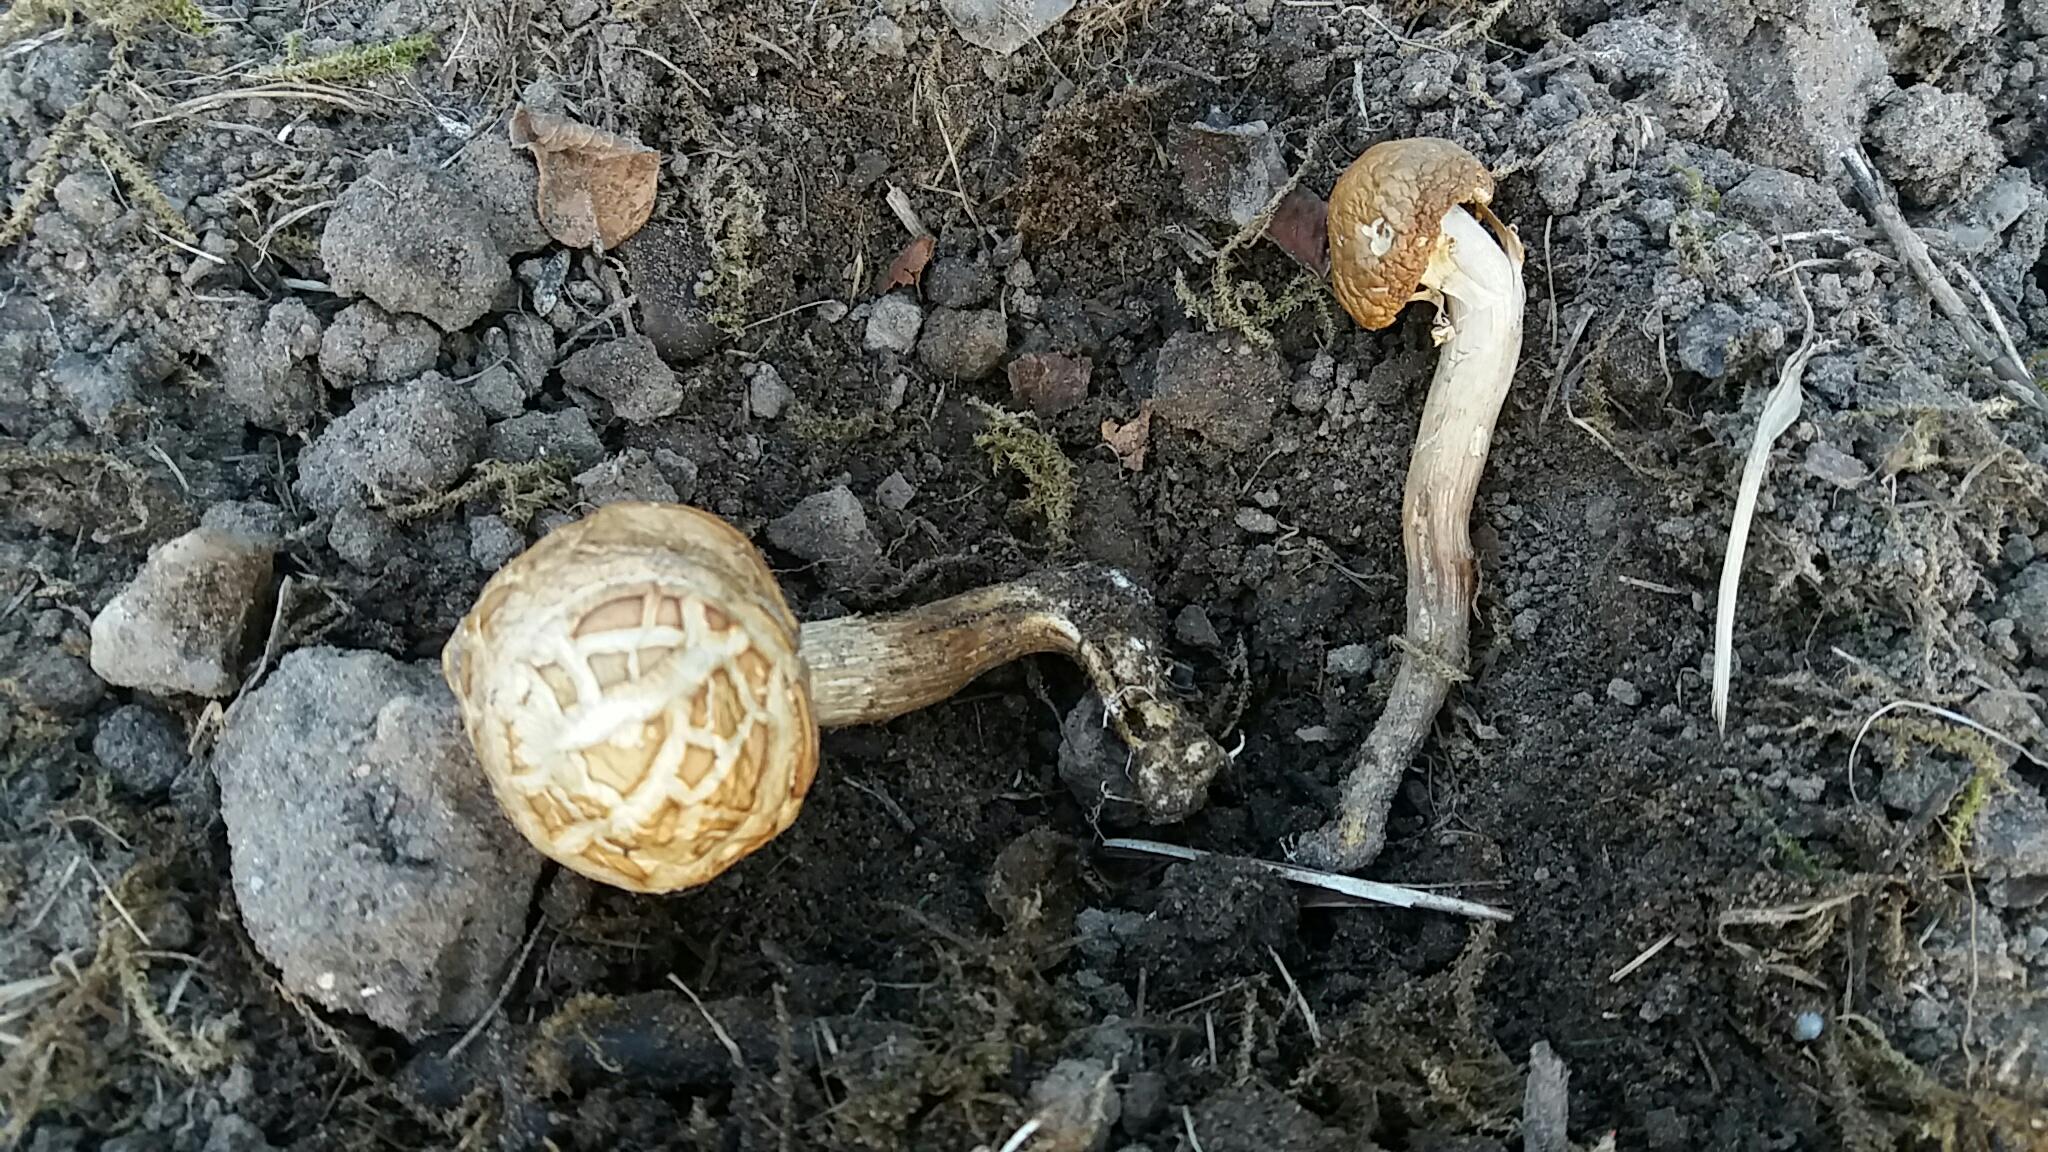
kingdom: Fungi
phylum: Basidiomycota
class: Agaricomycetes
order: Agaricales
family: Strophariaceae
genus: Agrocybe
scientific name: Agrocybe praecox
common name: tidlig agerhat
